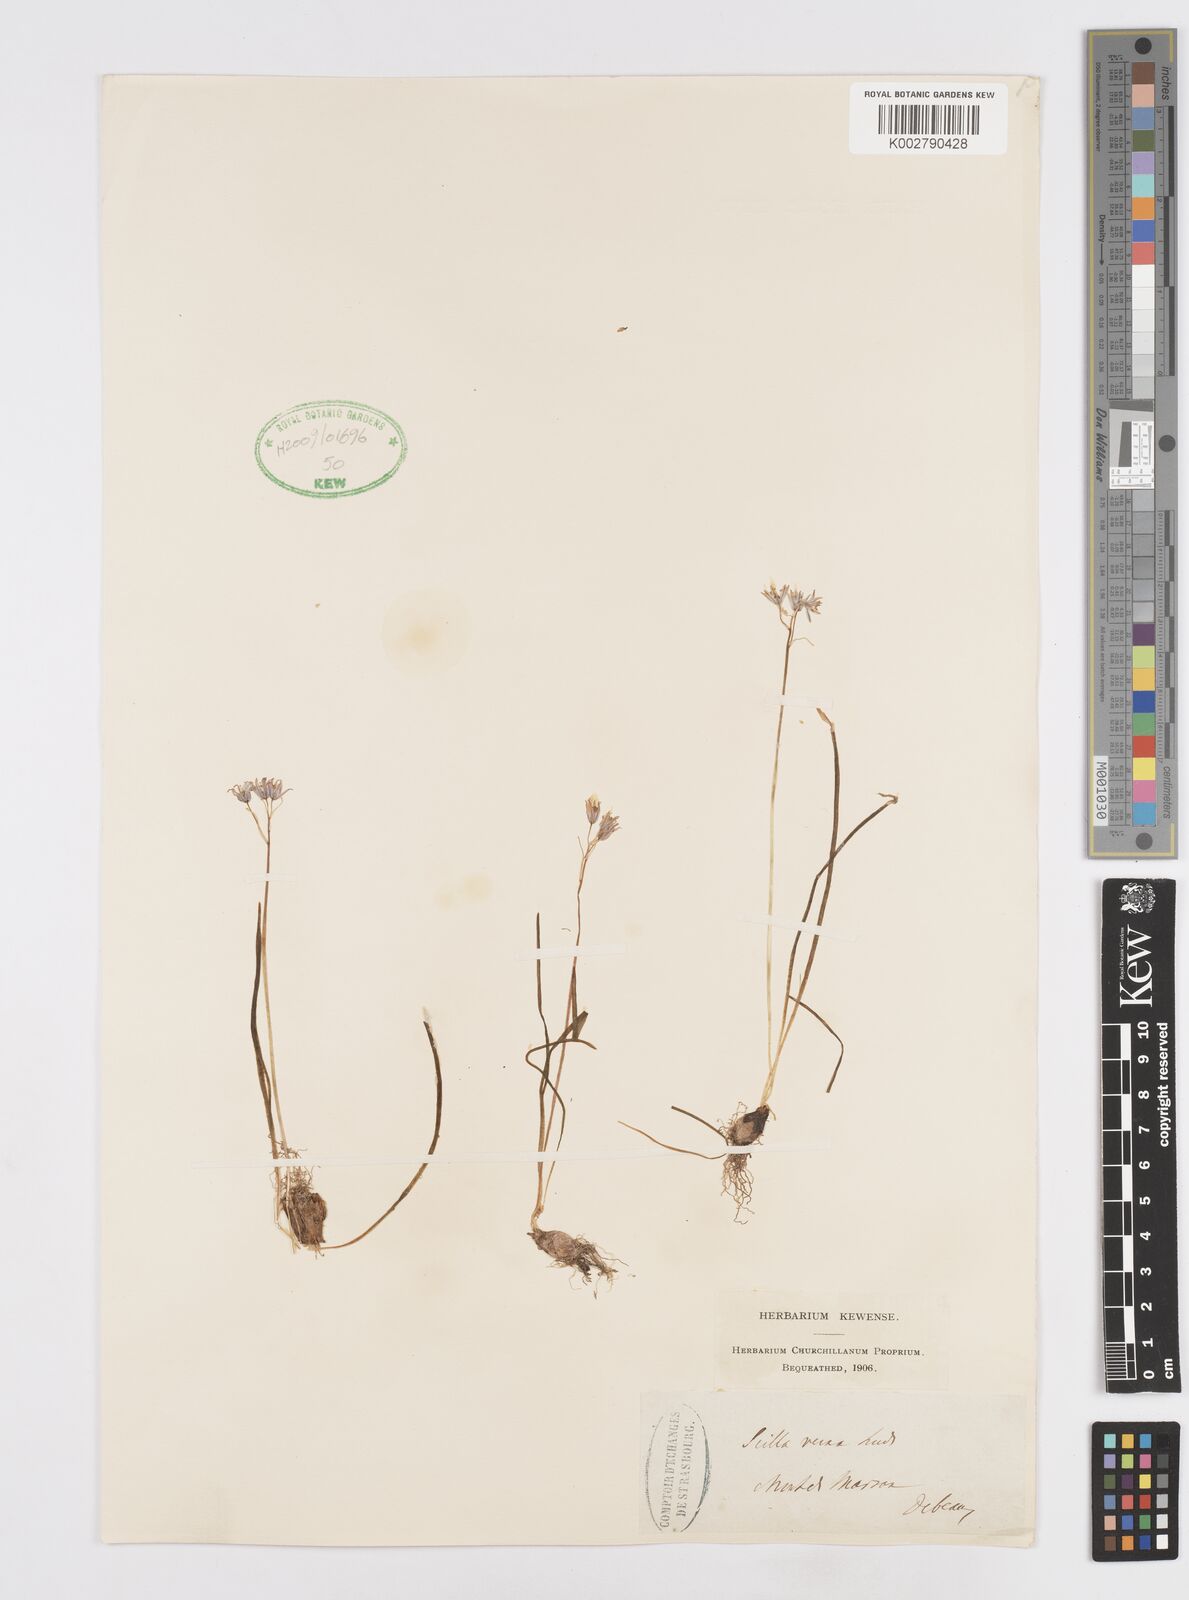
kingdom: Plantae
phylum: Tracheophyta
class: Liliopsida
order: Asparagales
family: Asparagaceae
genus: Scilla
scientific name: Scilla verna
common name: Spring squill
